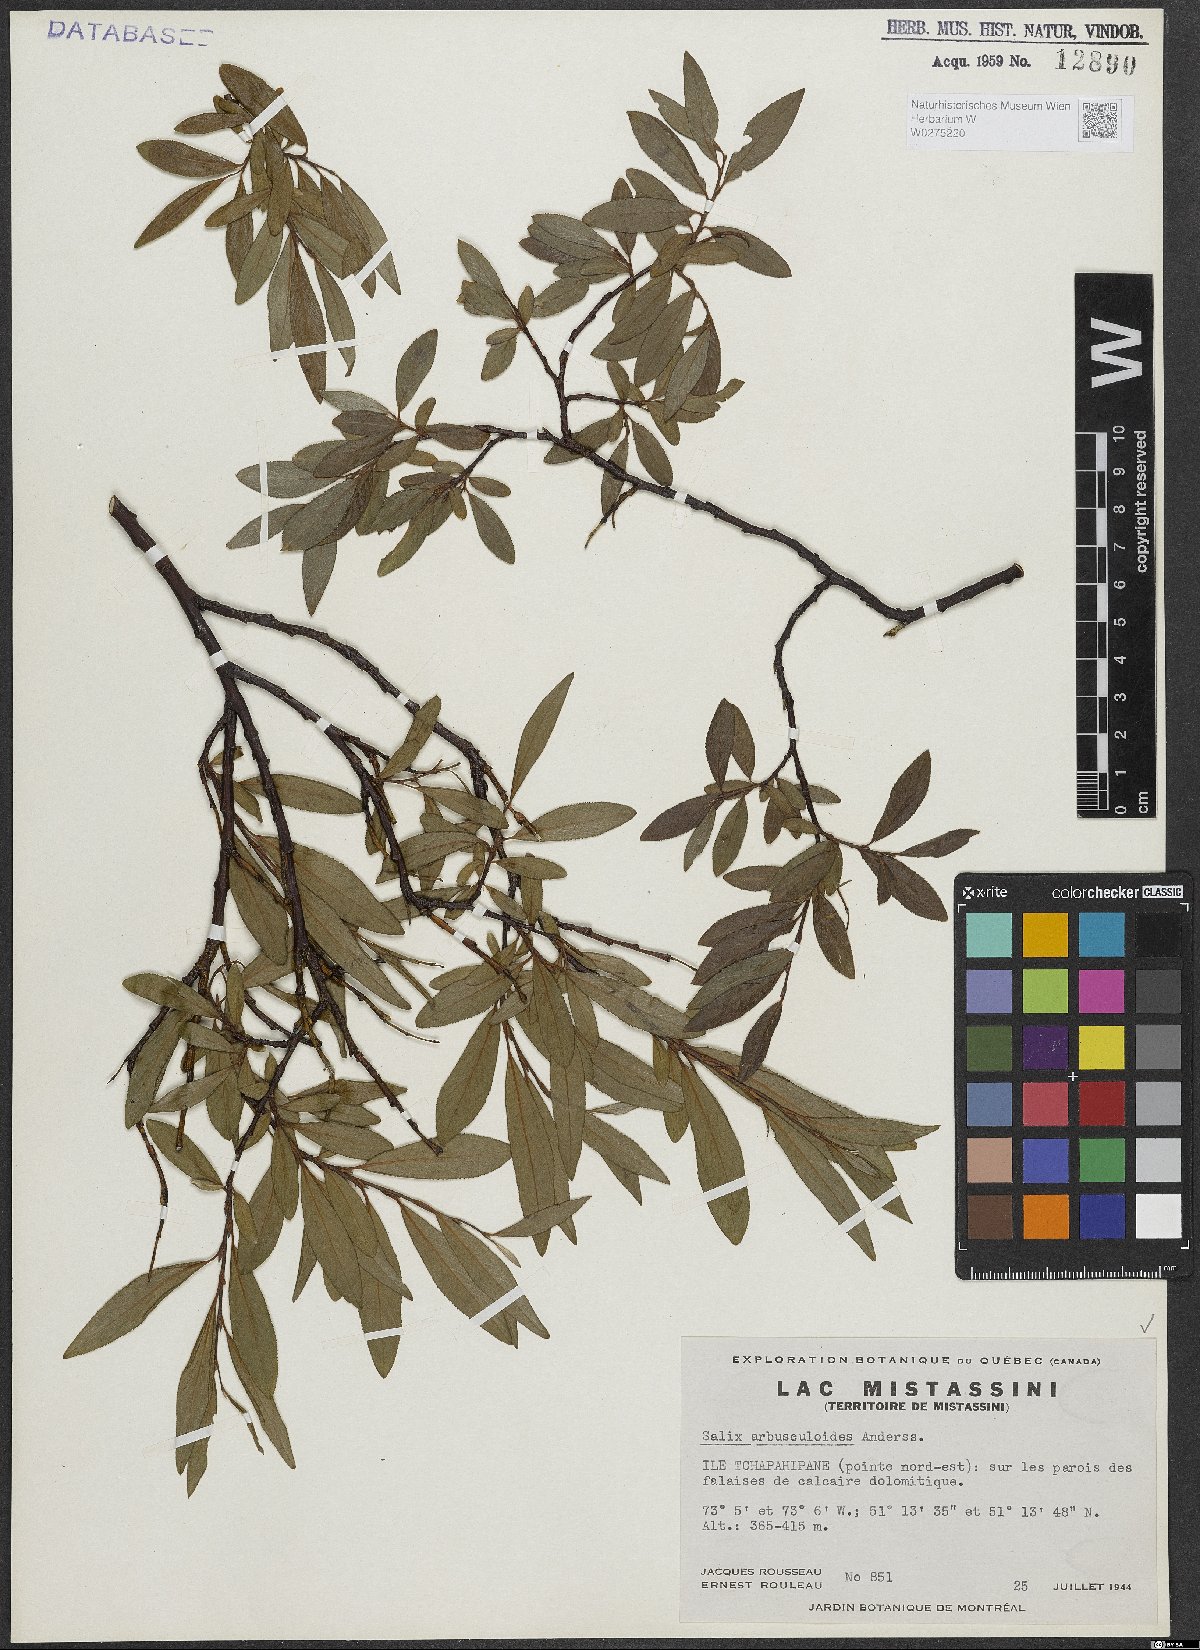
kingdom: Plantae
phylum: Tracheophyta
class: Magnoliopsida
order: Malpighiales
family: Salicaceae
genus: Salix
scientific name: Salix arbusculoides
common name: Little-tree willow
